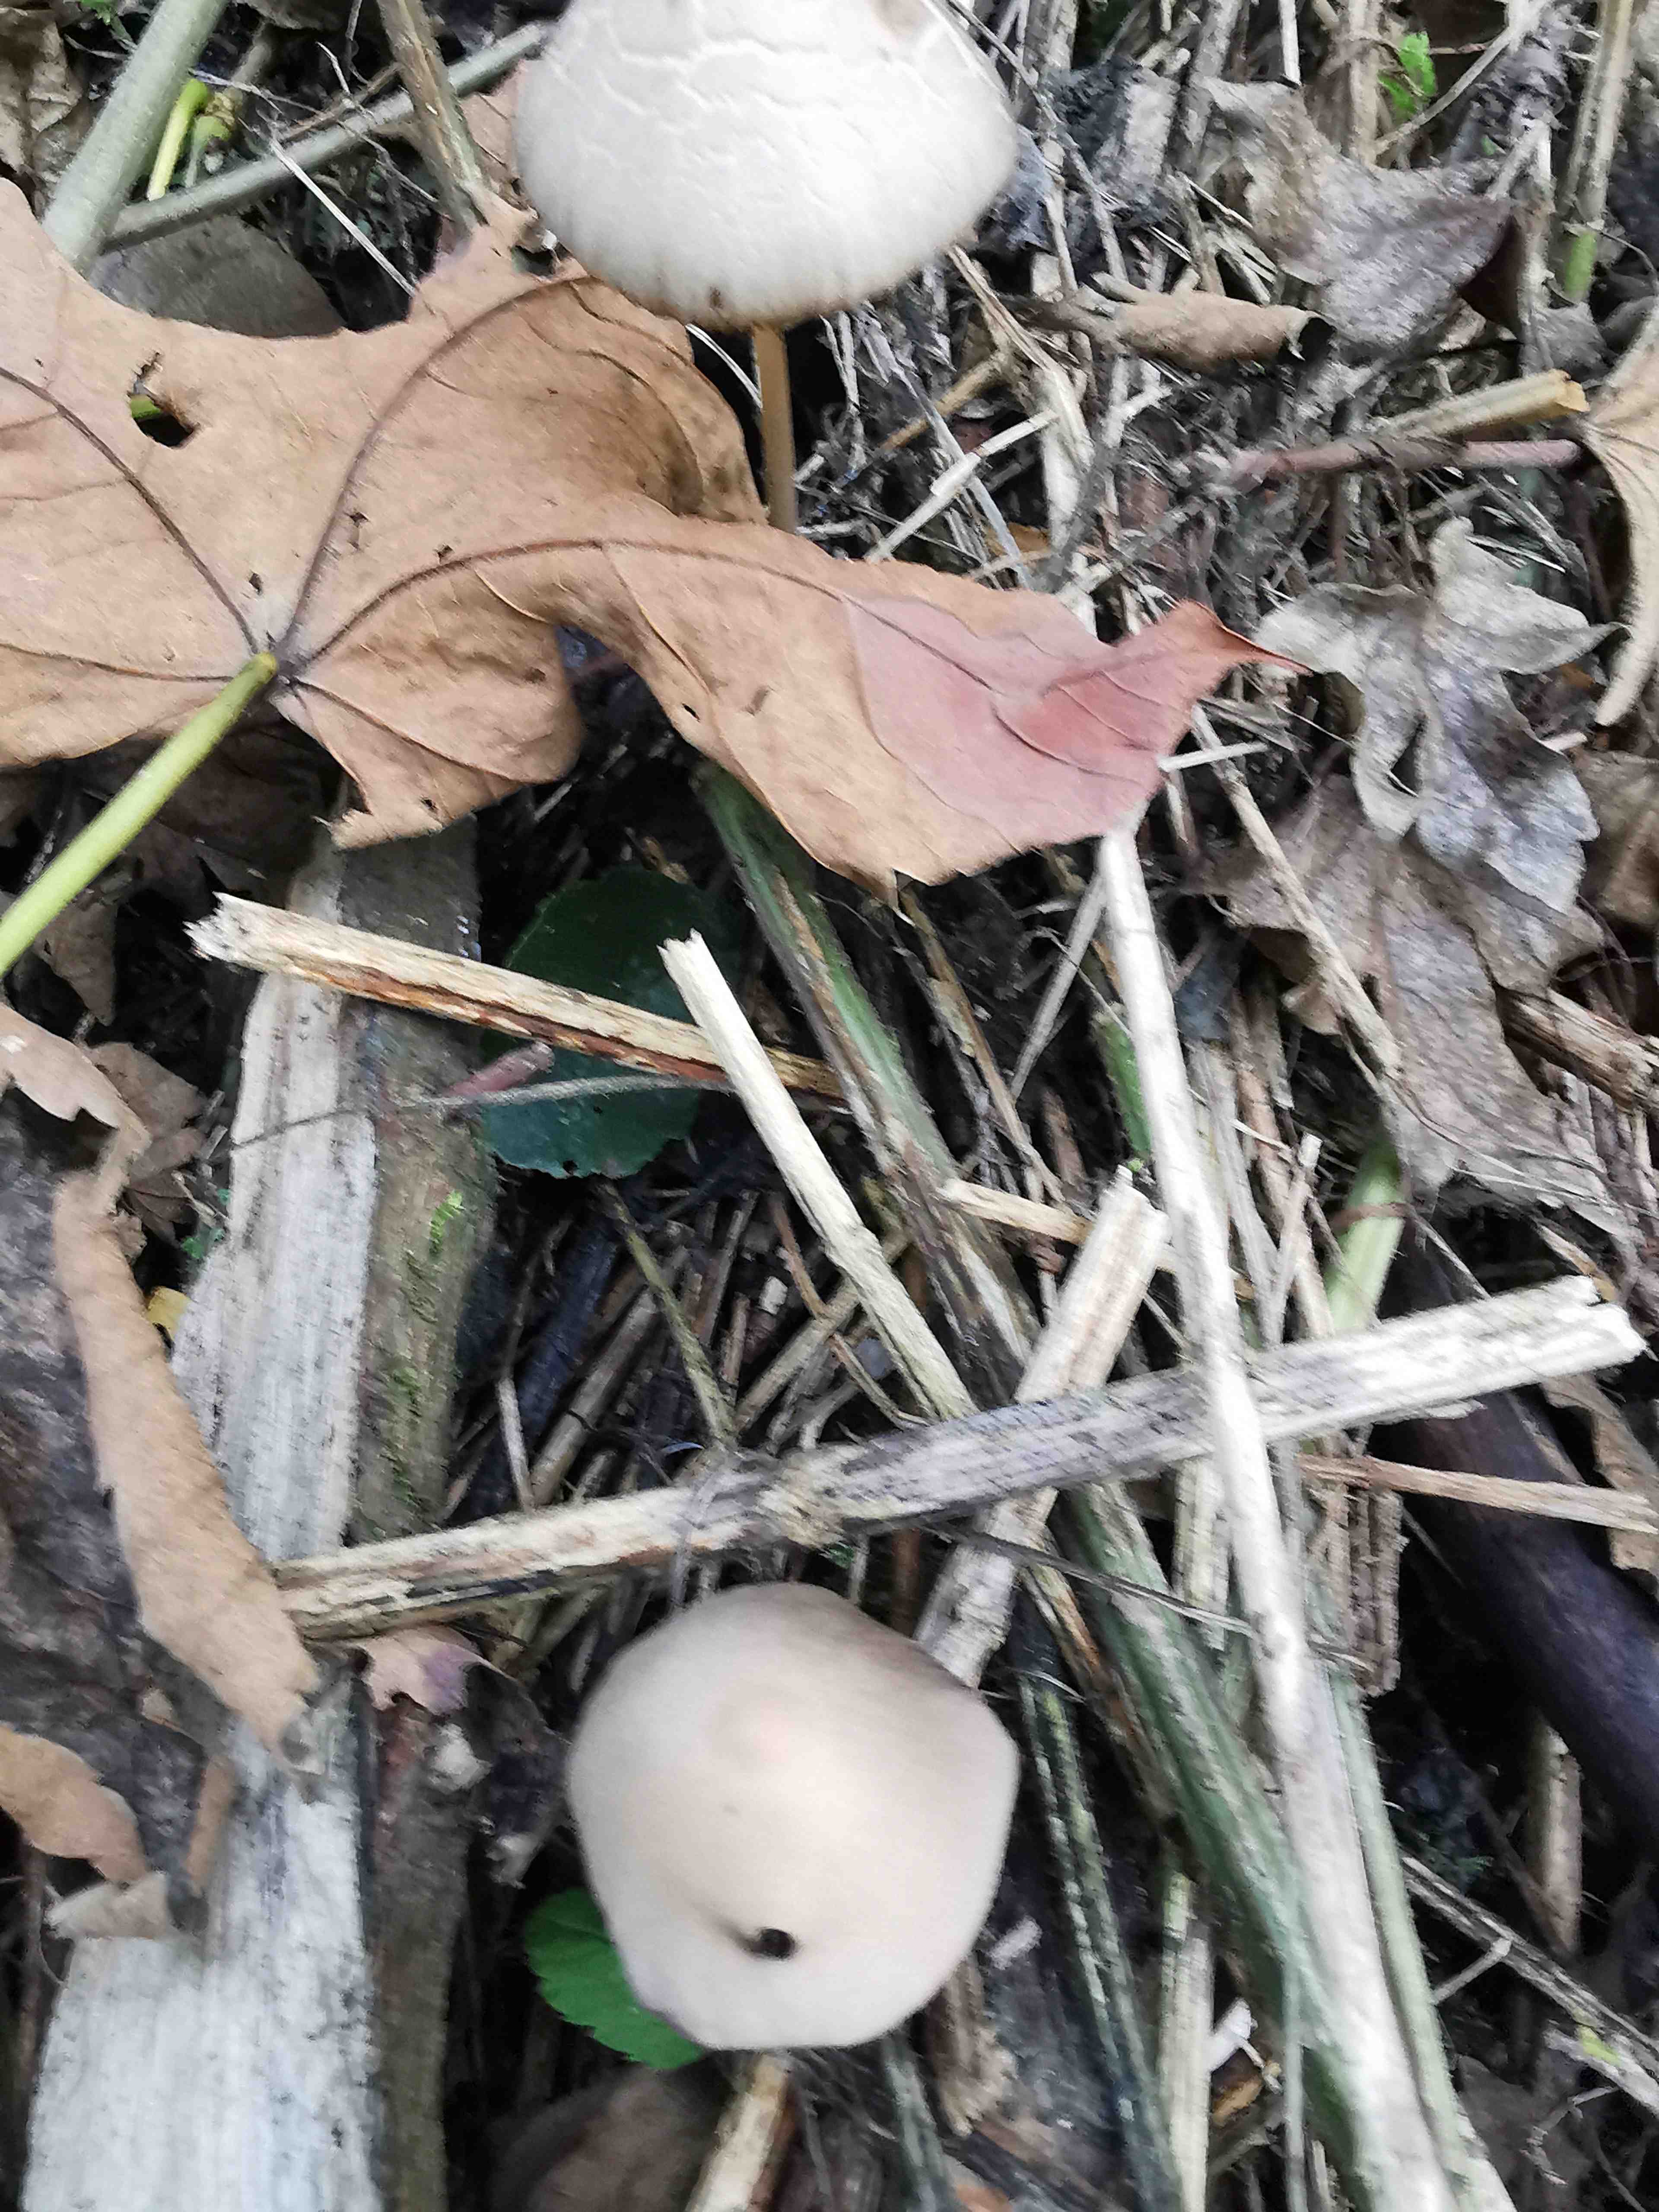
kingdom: Fungi
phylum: Basidiomycota
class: Agaricomycetes
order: Agaricales
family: Psathyrellaceae
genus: Parasola
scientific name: Parasola conopilea
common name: kegle-hjulhat
